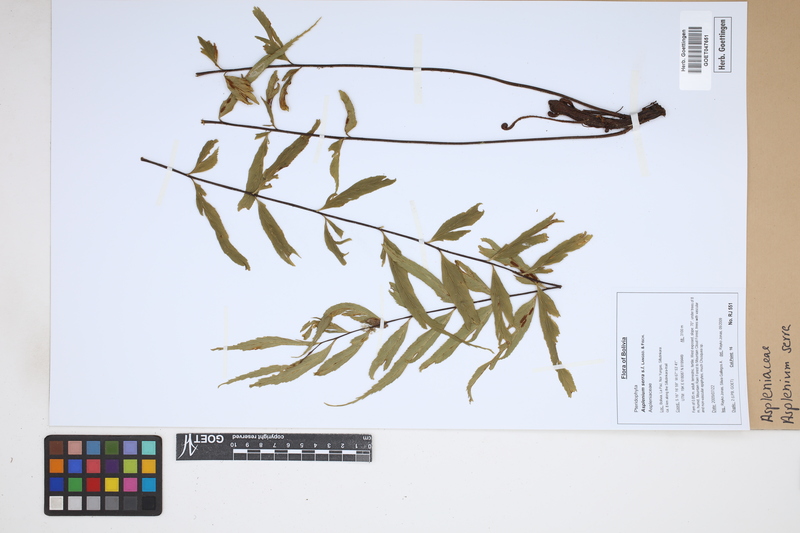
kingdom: Plantae
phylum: Tracheophyta
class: Polypodiopsida
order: Polypodiales
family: Aspleniaceae
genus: Asplenium
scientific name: Asplenium serra
